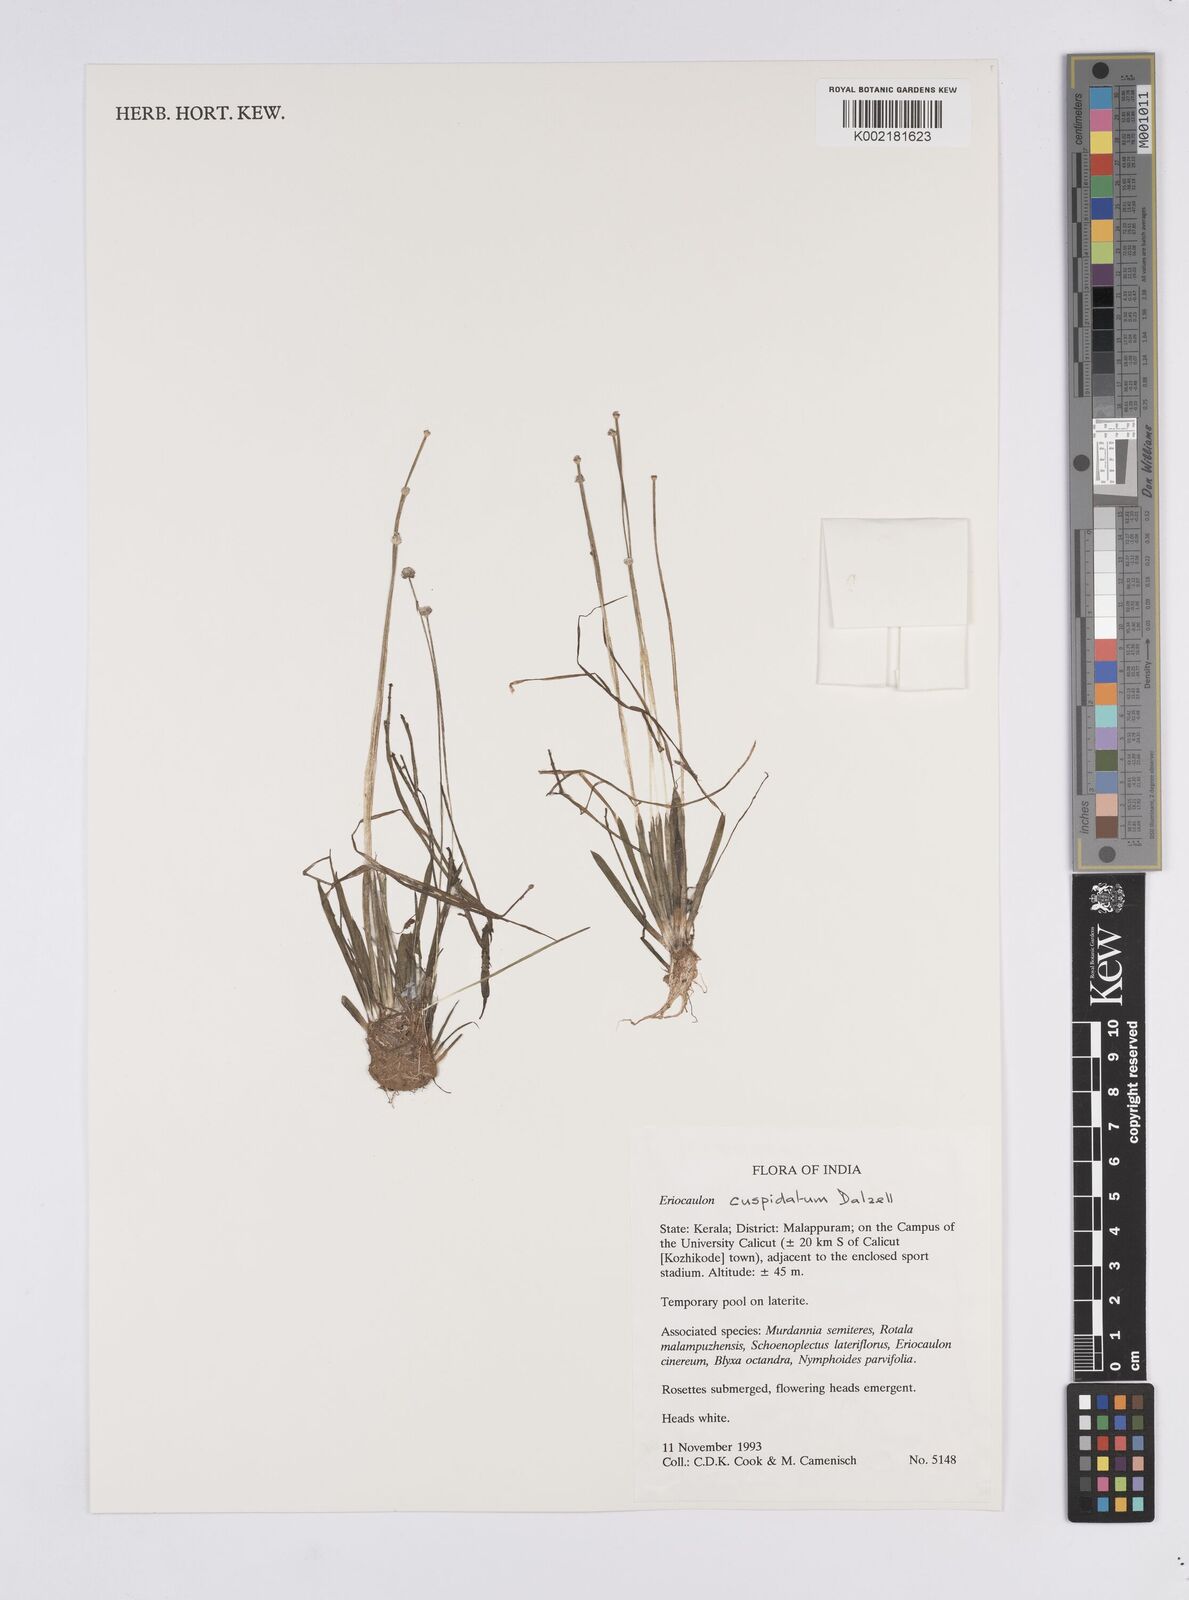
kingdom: Plantae
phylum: Tracheophyta
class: Liliopsida
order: Poales
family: Eriocaulaceae
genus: Eriocaulon
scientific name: Eriocaulon cuspidatum
